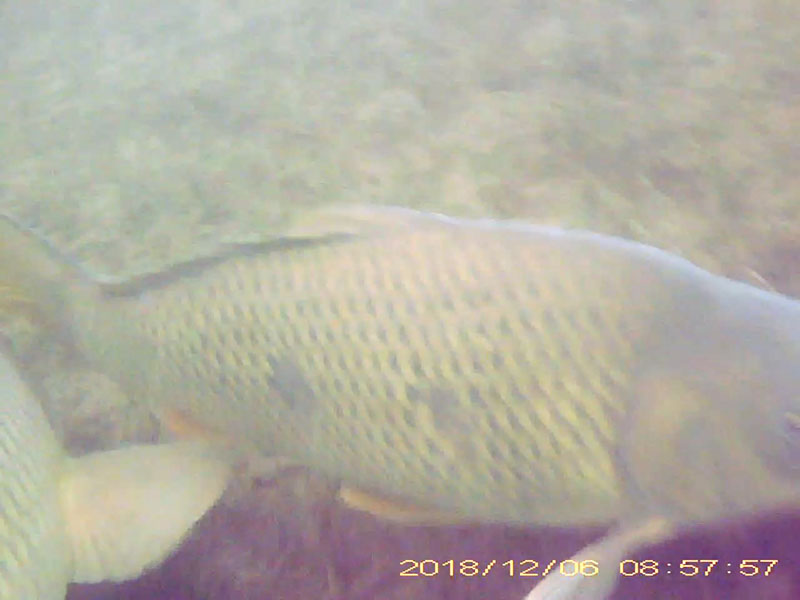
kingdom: Animalia
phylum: Chordata
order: Cypriniformes
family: Cyprinidae
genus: Cyprinus
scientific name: Cyprinus carpio
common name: コイ
